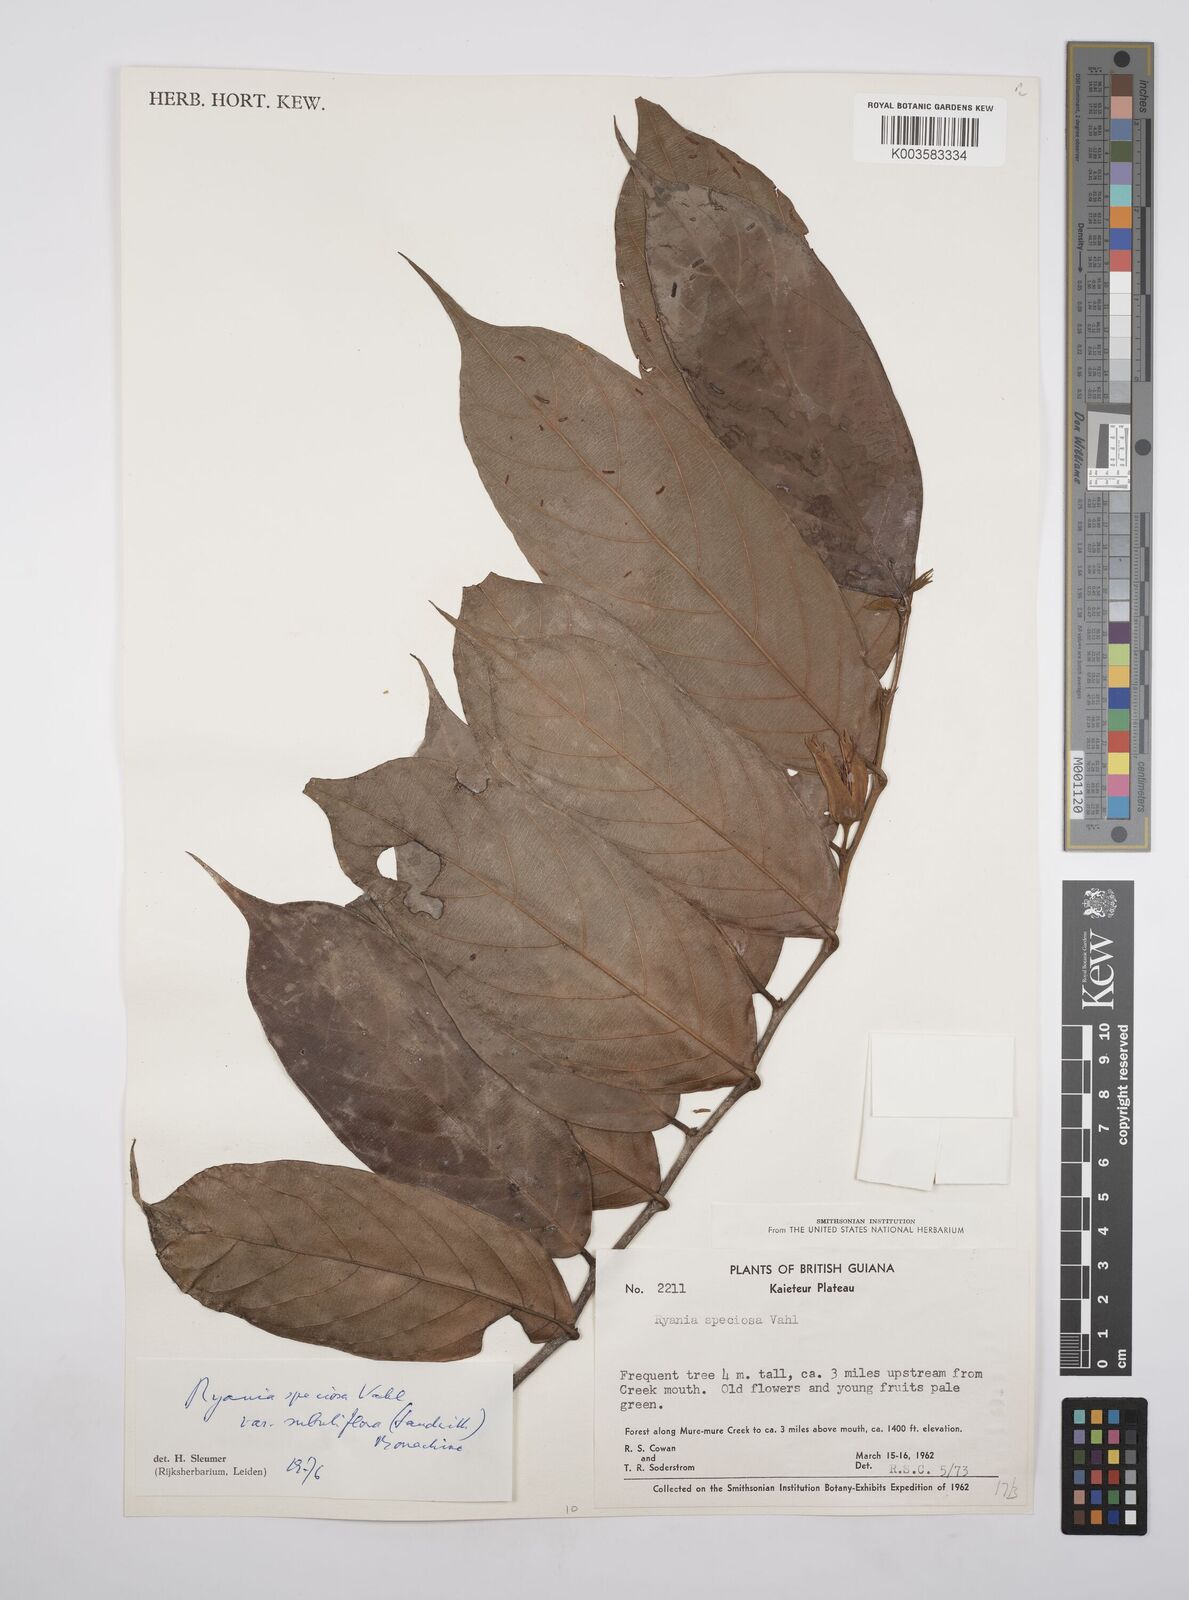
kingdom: Plantae
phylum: Tracheophyta
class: Magnoliopsida
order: Malpighiales
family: Salicaceae
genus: Ryania
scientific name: Ryania speciosa
